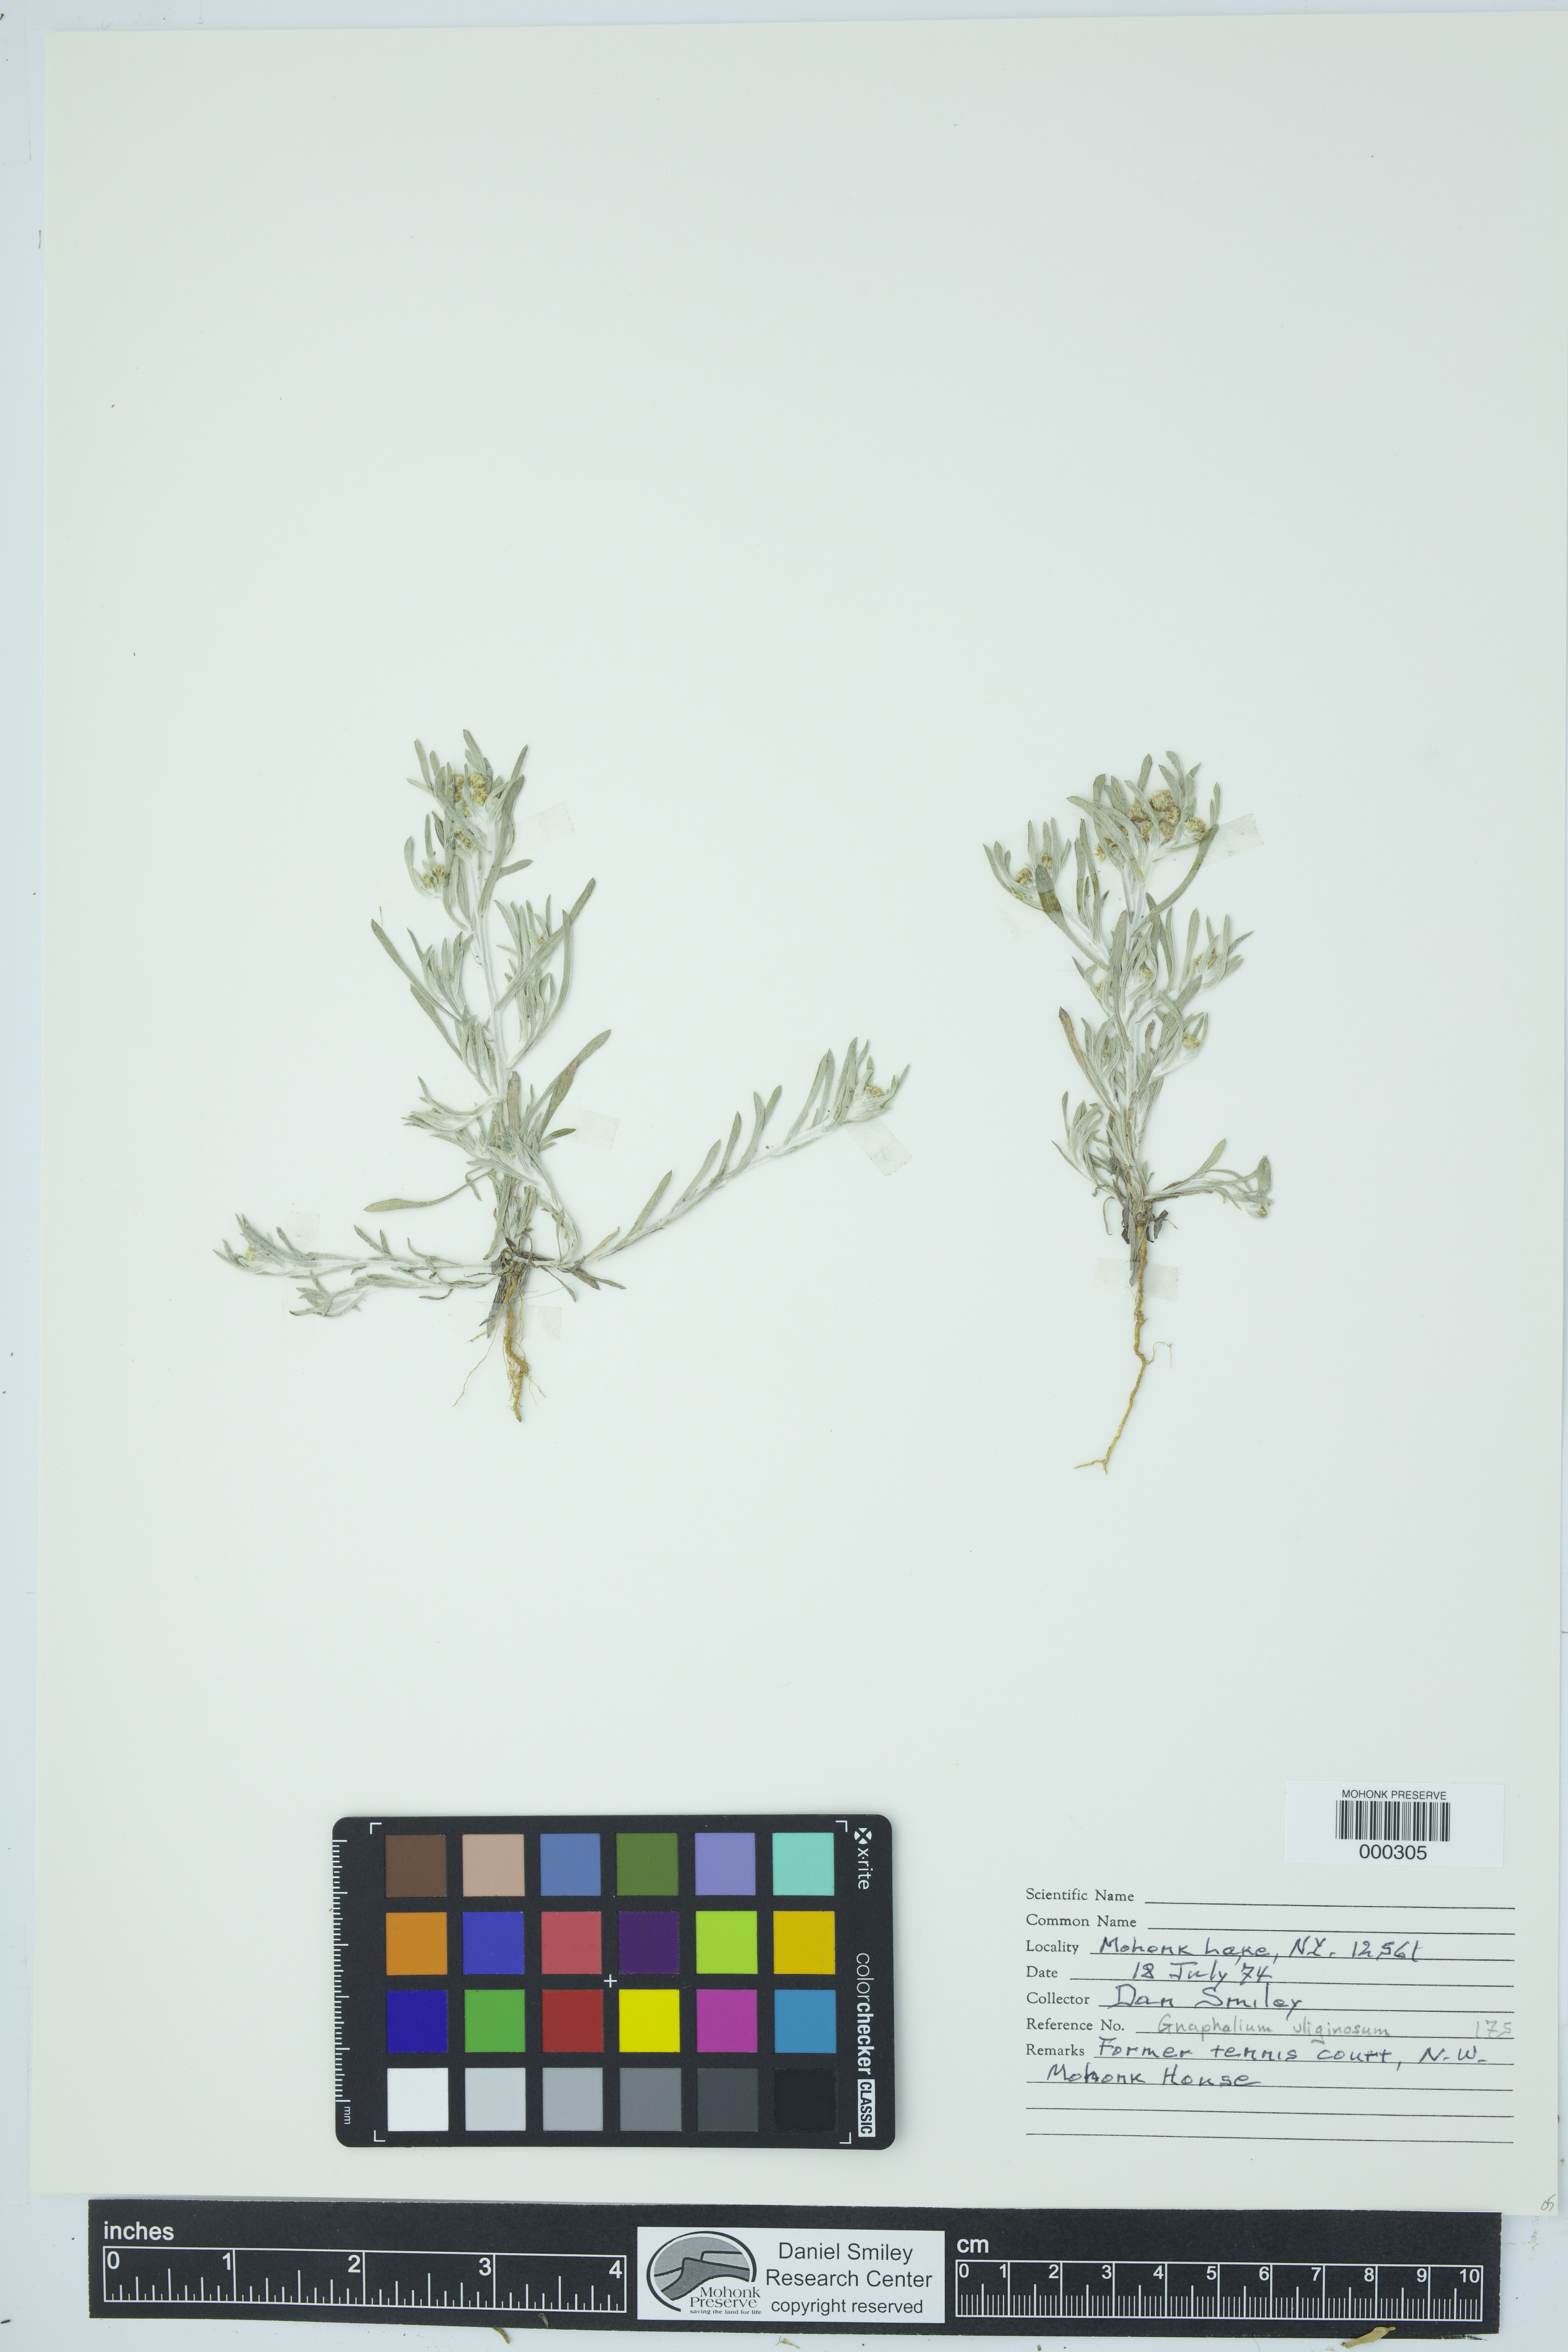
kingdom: Plantae
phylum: Tracheophyta
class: Magnoliopsida
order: Asterales
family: Asteraceae
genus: Gnaphalium
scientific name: Gnaphalium uliginosum
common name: Marsh cudweed
